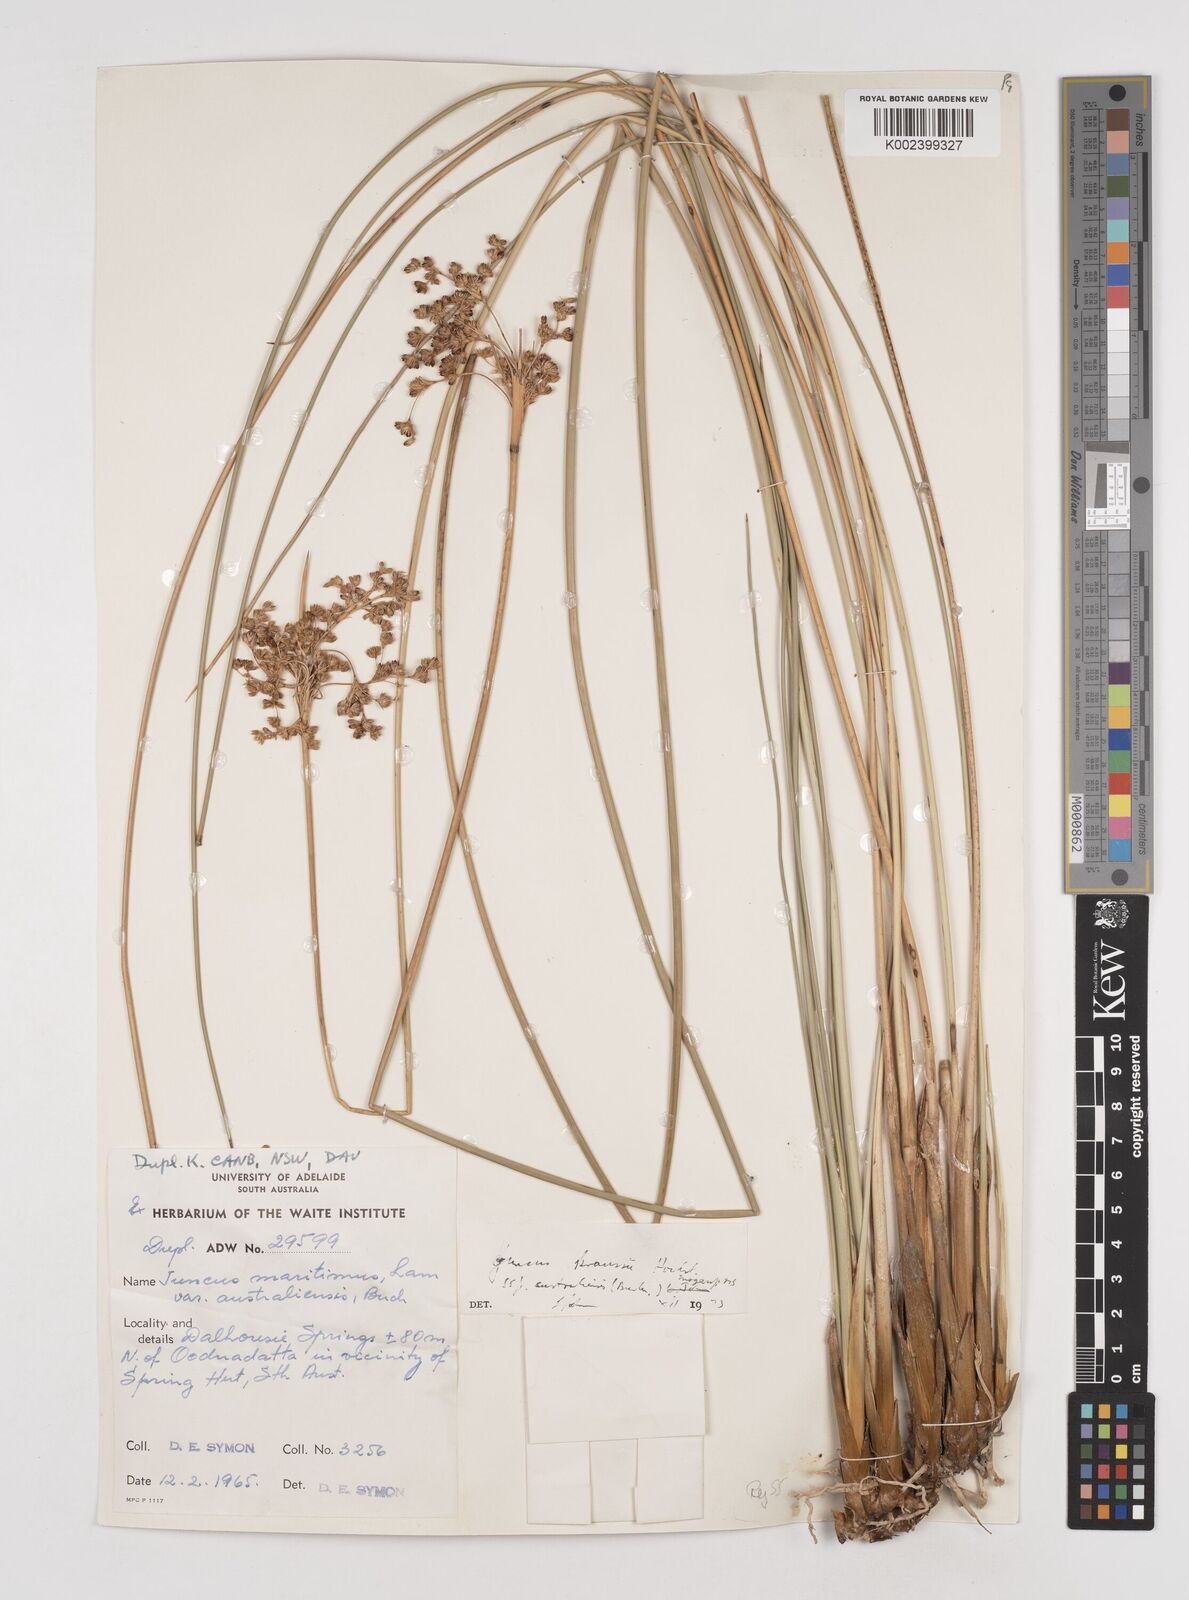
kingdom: Plantae
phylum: Tracheophyta
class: Liliopsida
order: Poales
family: Juncaceae
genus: Juncus
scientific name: Juncus kraussii
